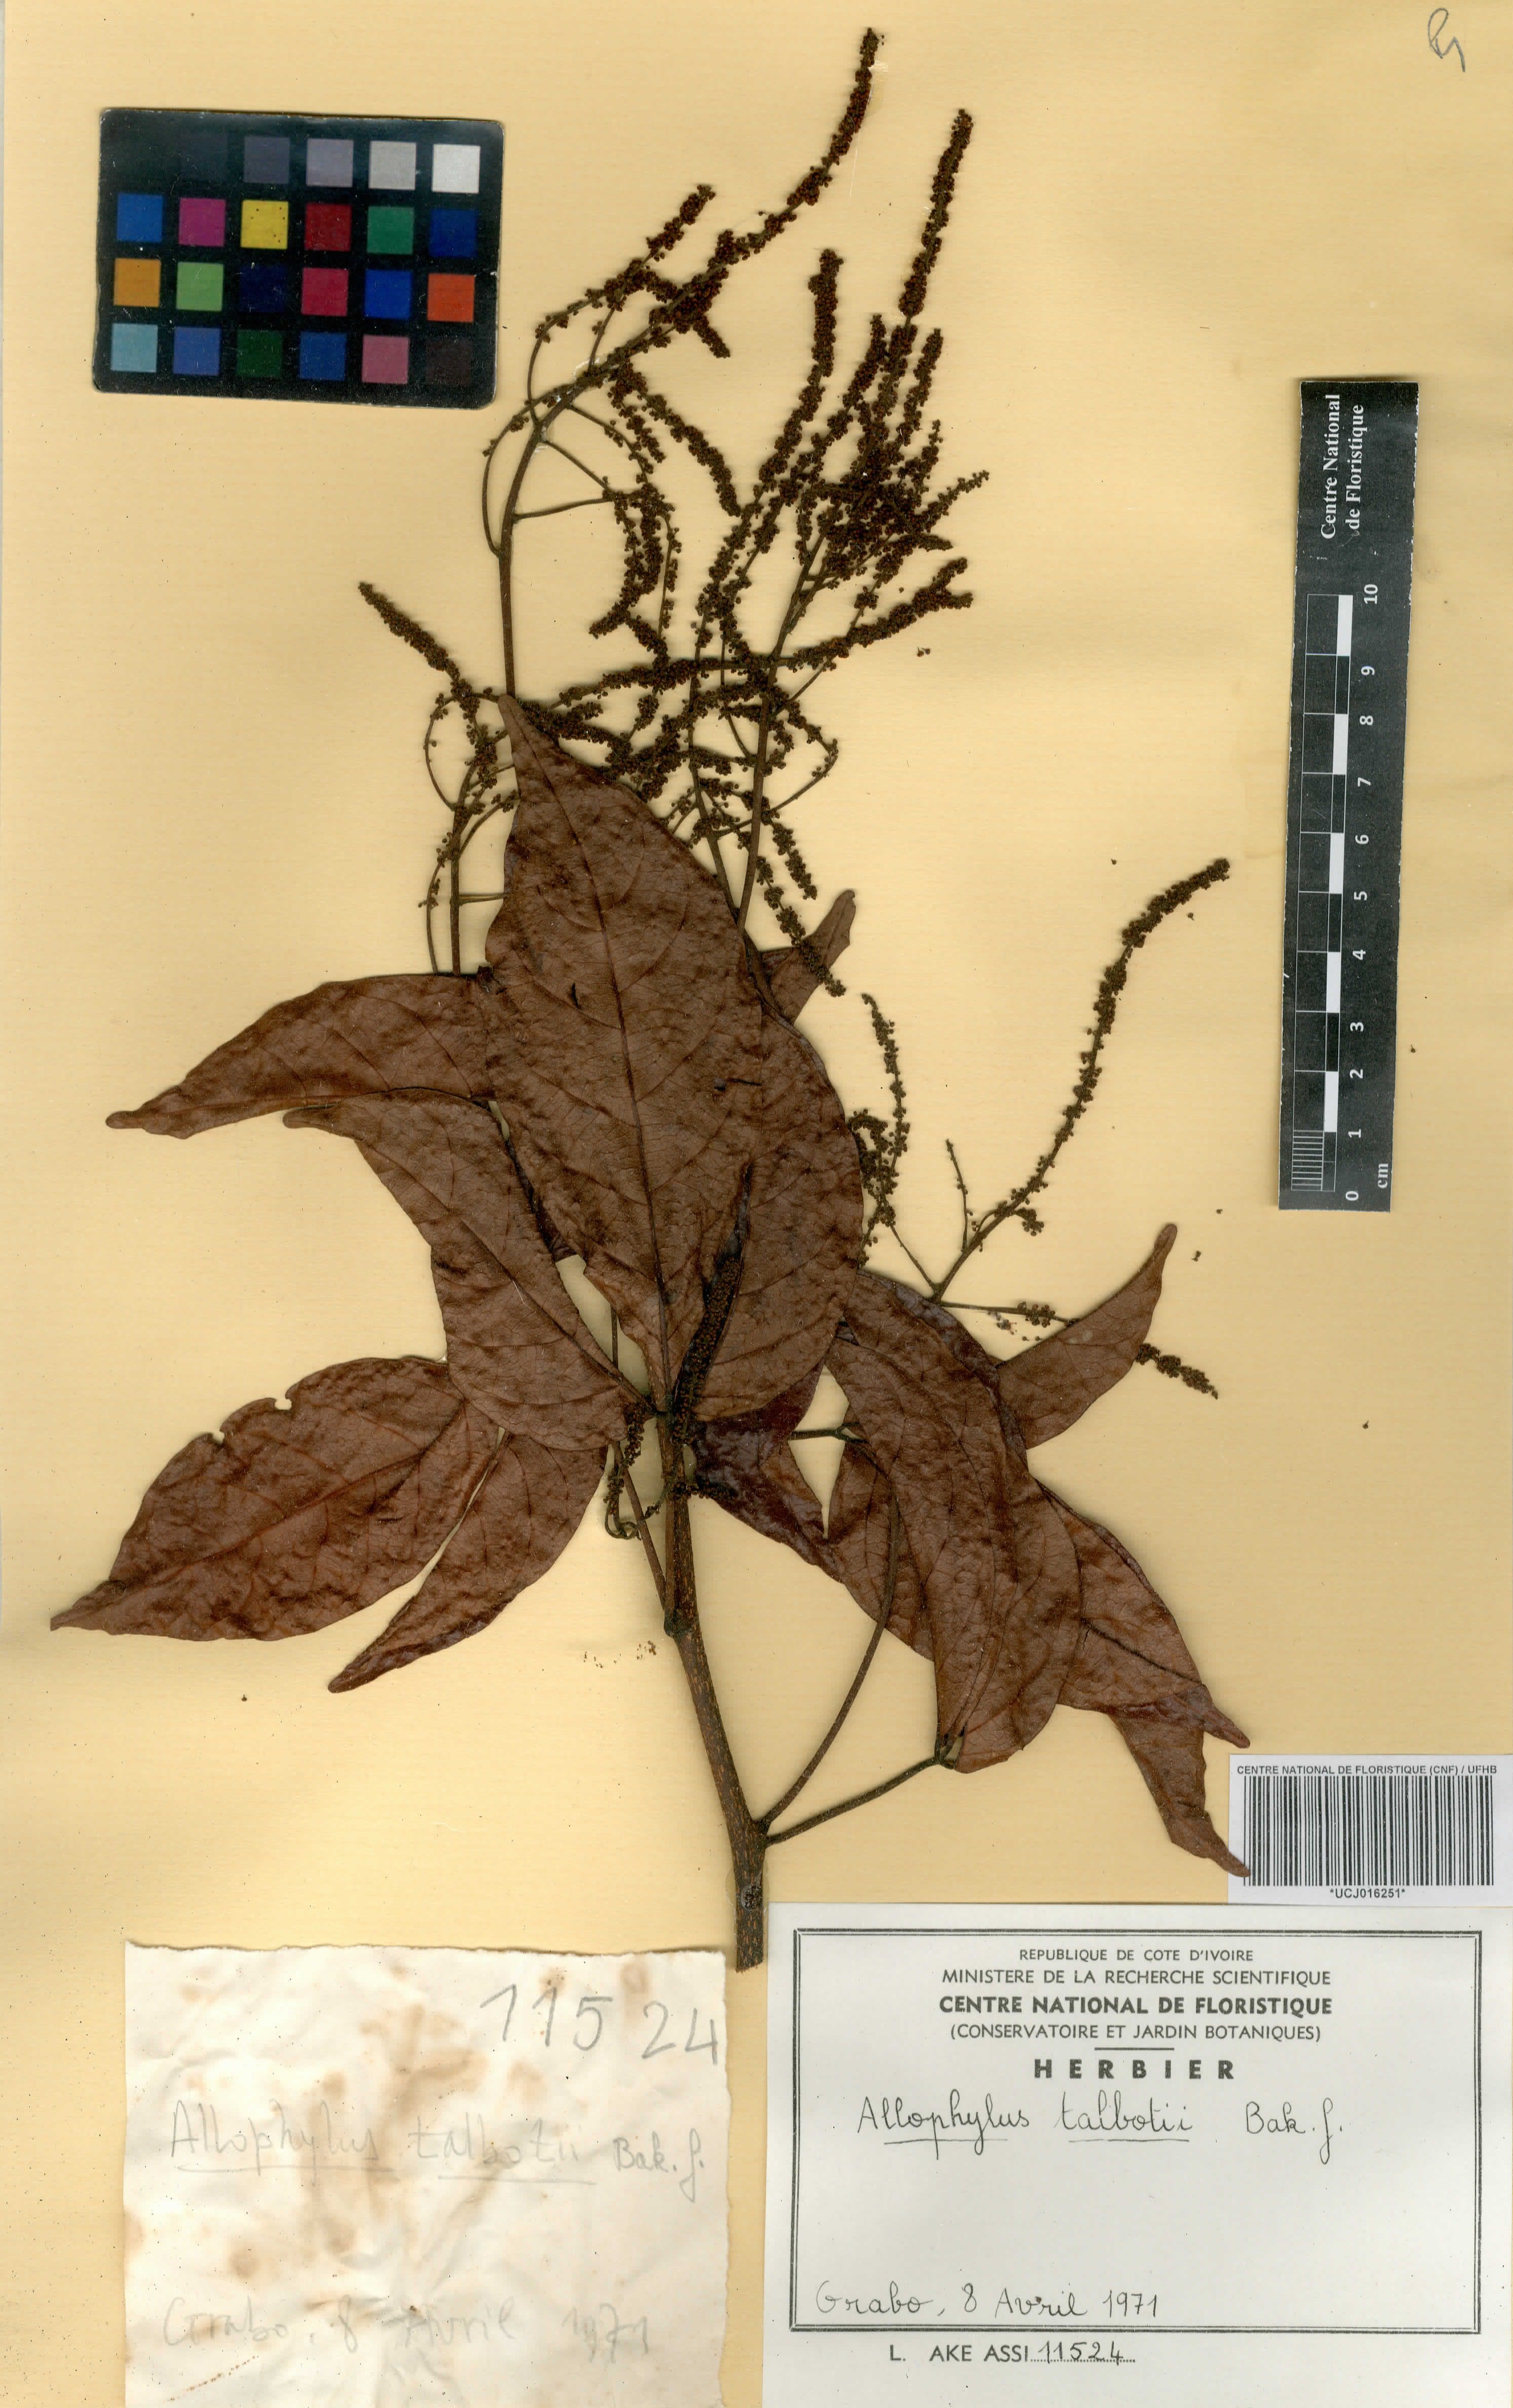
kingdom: Plantae
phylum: Tracheophyta
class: Magnoliopsida
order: Sapindales
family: Sapindaceae
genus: Allophylus
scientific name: Allophylus talbotii
